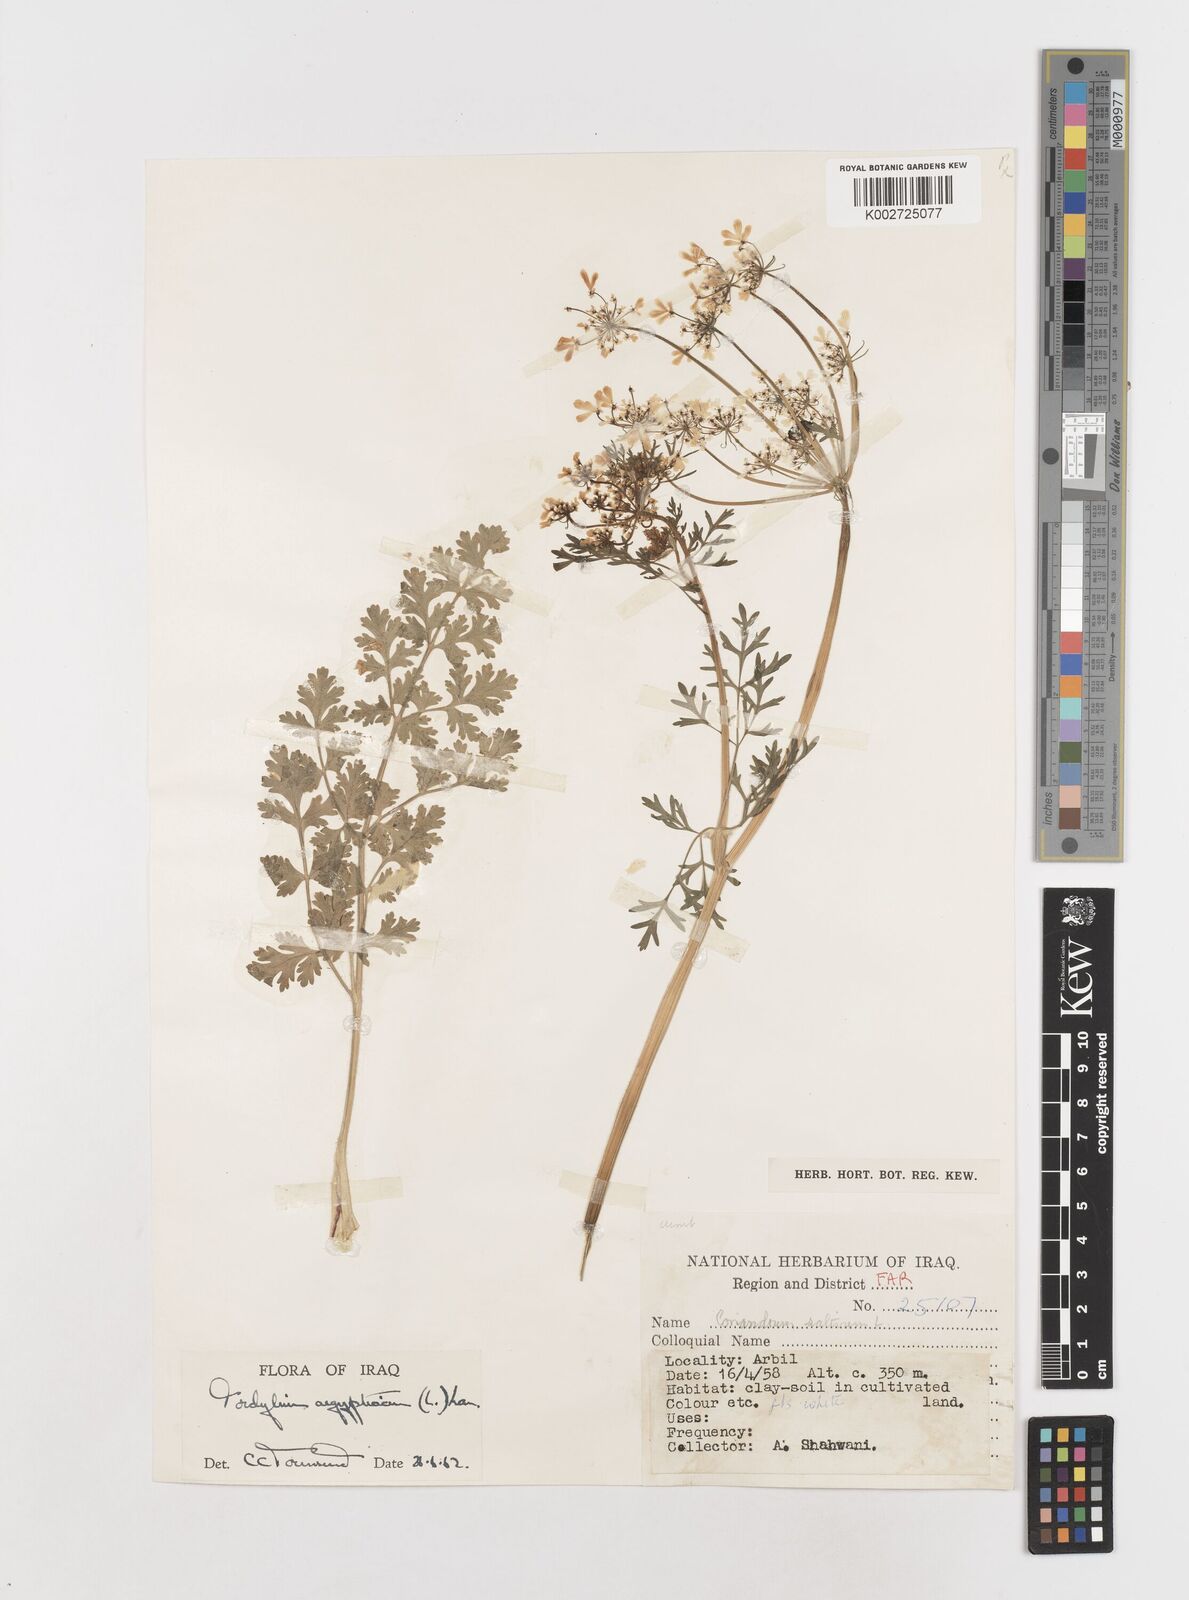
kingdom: Plantae
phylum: Tracheophyta
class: Magnoliopsida
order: Apiales
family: Apiaceae
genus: Tordylium
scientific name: Tordylium aegyptiacum
